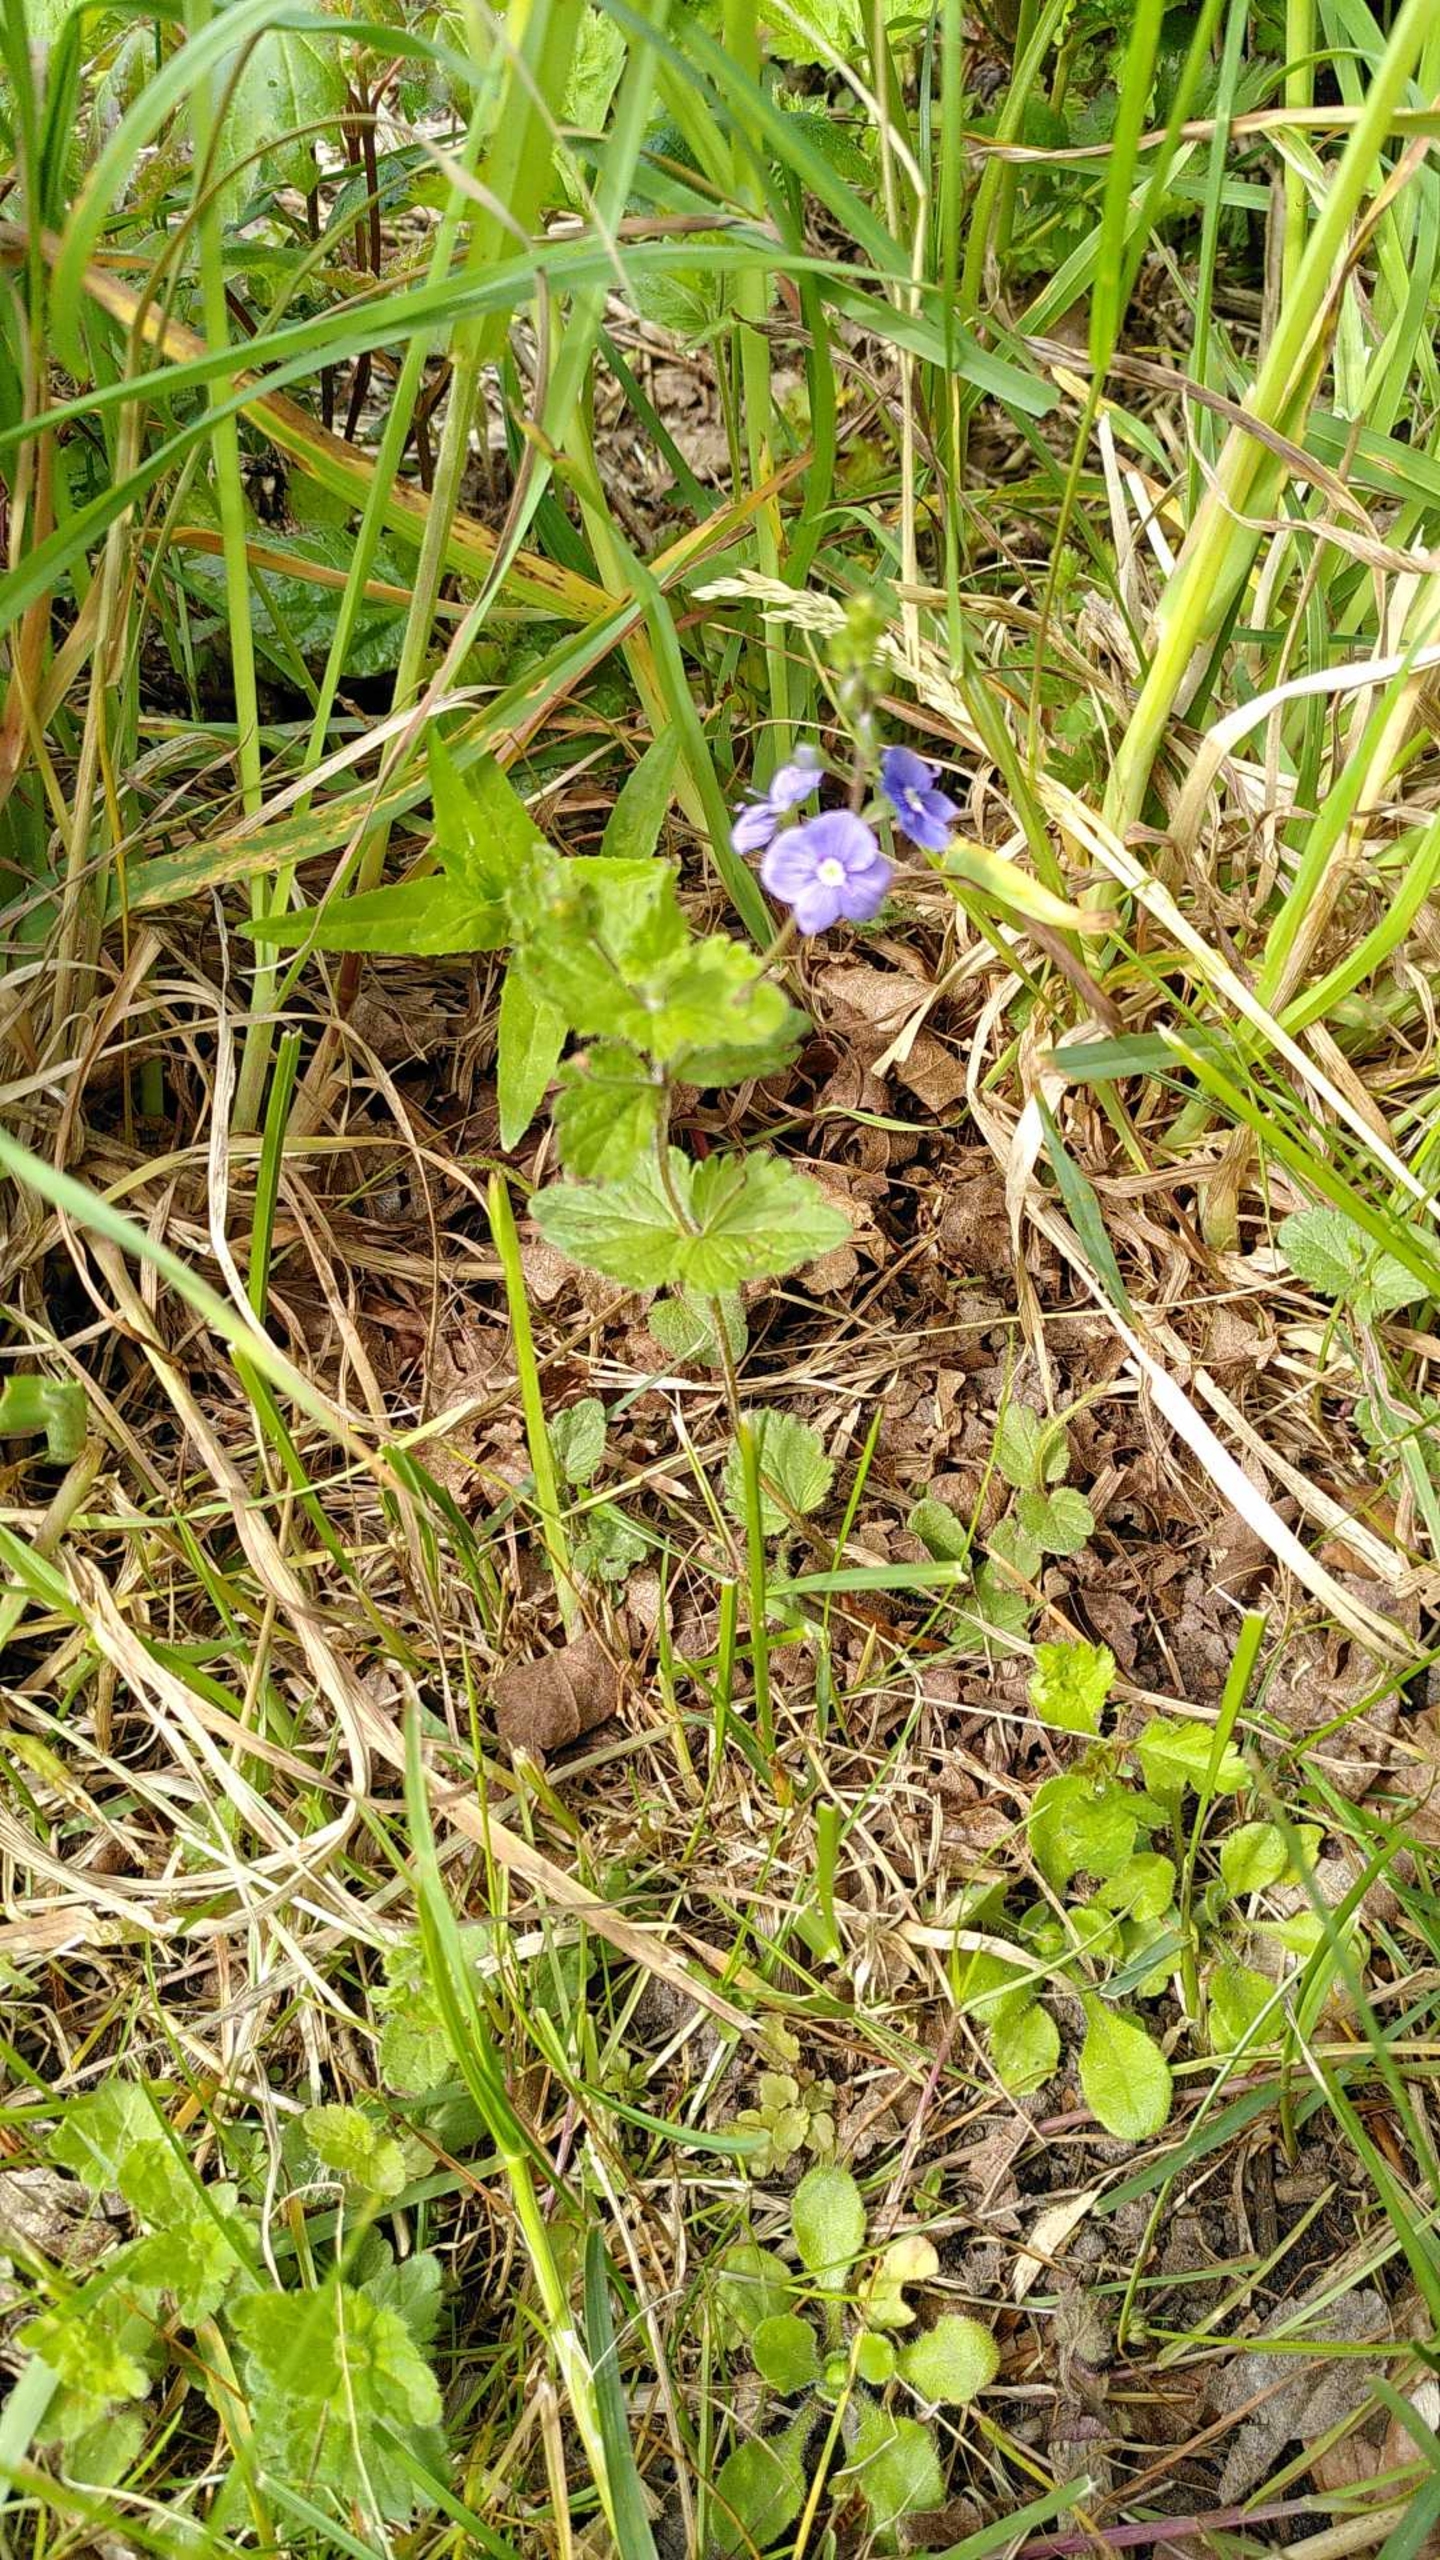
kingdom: Plantae
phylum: Tracheophyta
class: Magnoliopsida
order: Lamiales
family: Plantaginaceae
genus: Veronica
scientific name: Veronica chamaedrys
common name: Tveskægget ærenpris
